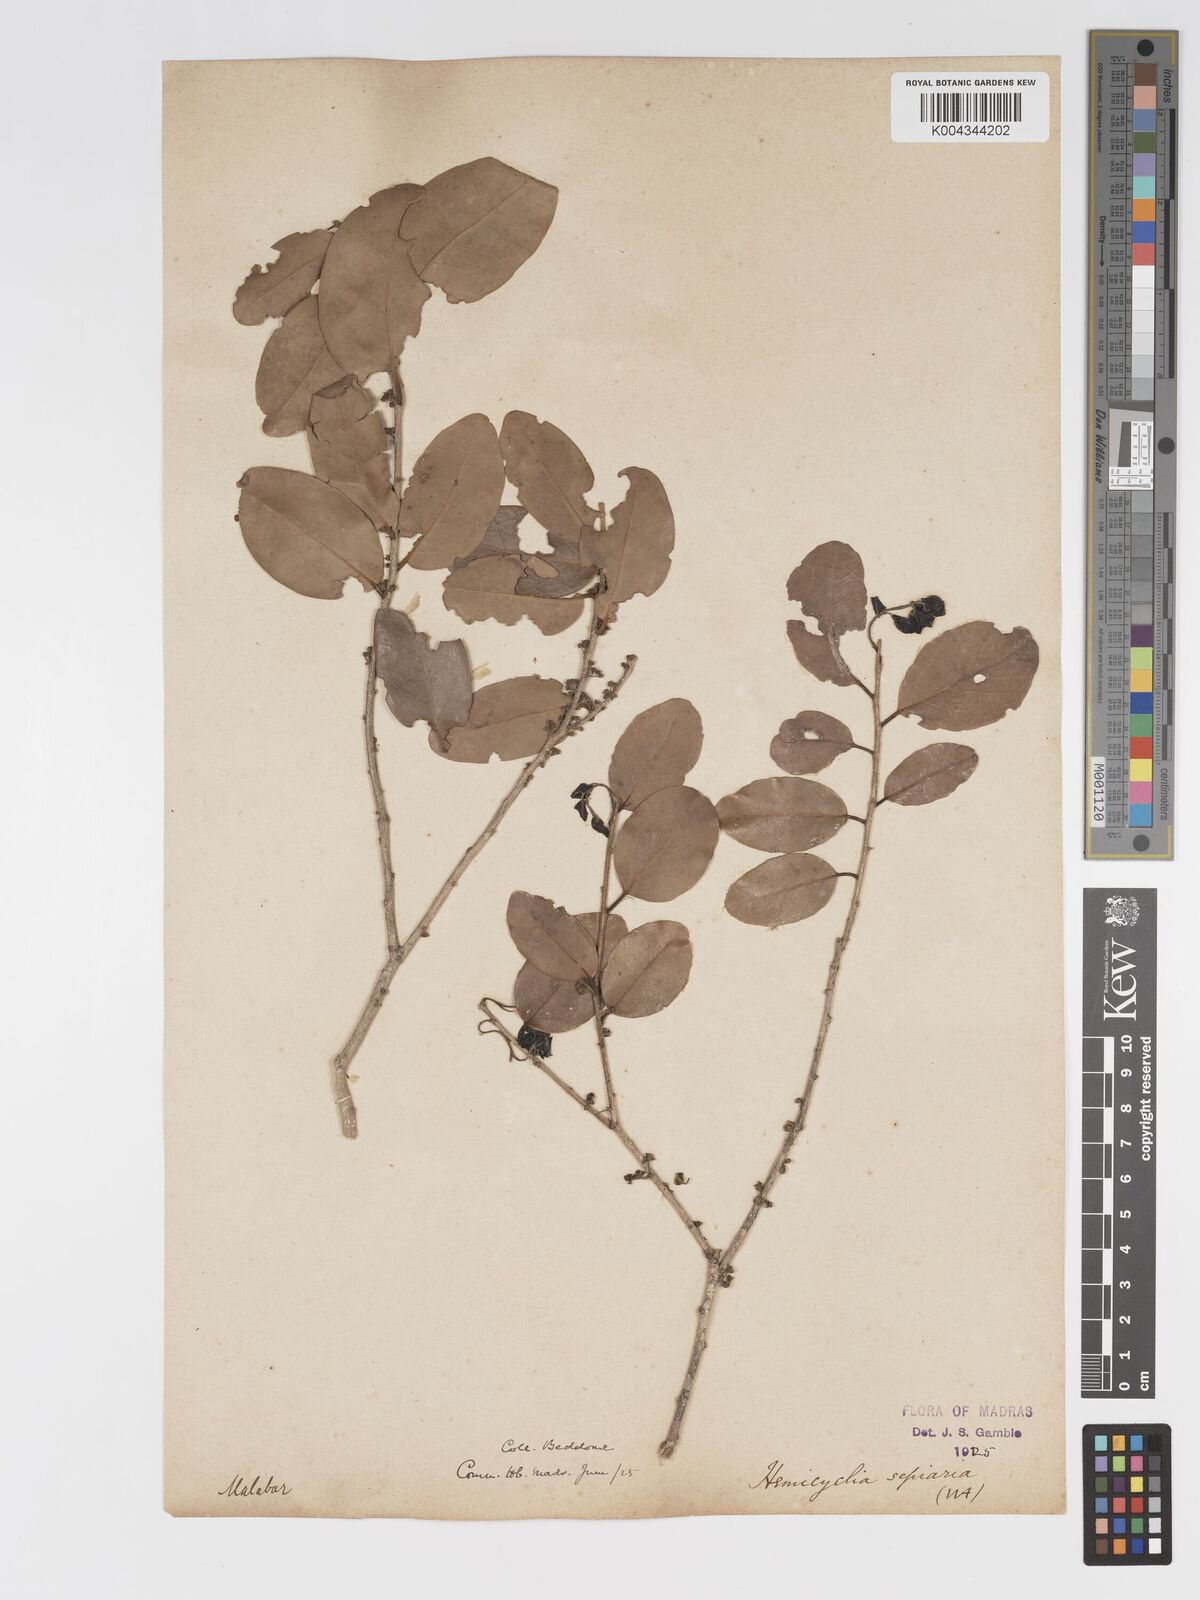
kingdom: Plantae
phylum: Tracheophyta
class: Magnoliopsida
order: Malpighiales
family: Putranjivaceae
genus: Drypetes
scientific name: Drypetes sepiaria
